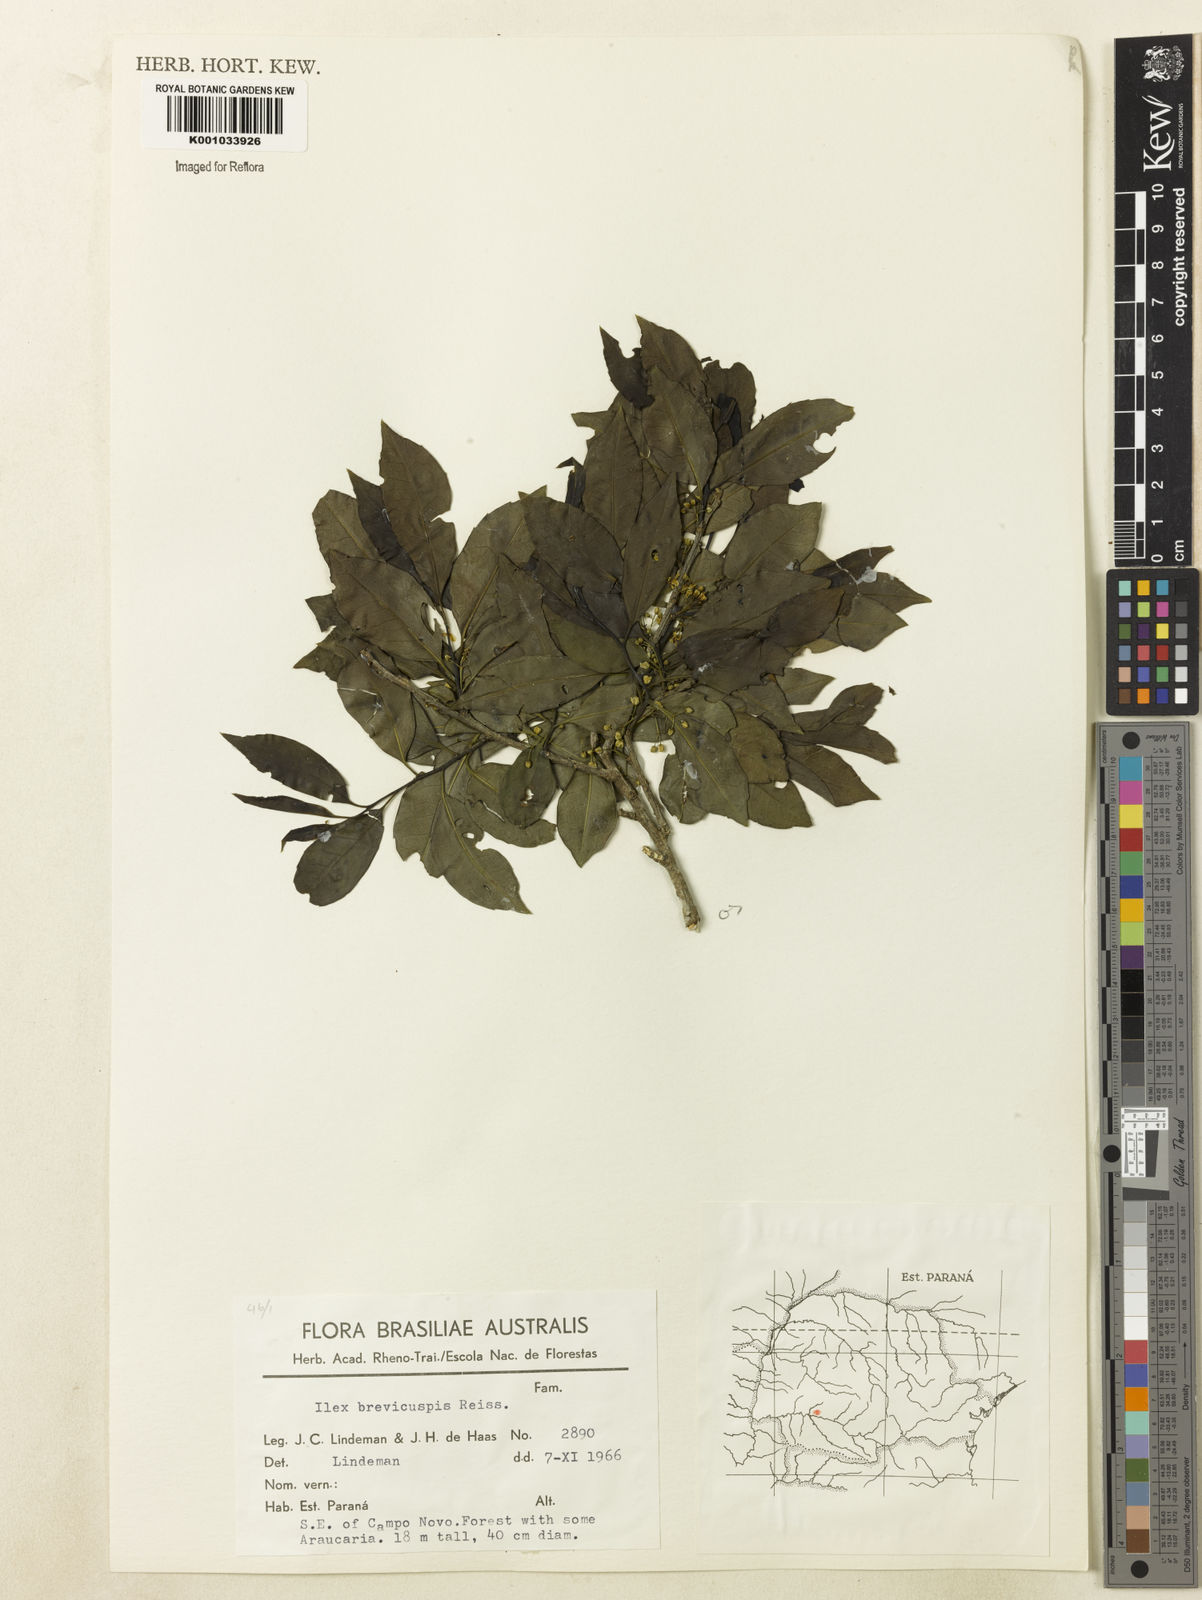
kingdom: Plantae
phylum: Tracheophyta
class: Magnoliopsida
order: Aquifoliales
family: Aquifoliaceae
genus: Ilex
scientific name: Ilex brevicuspis
